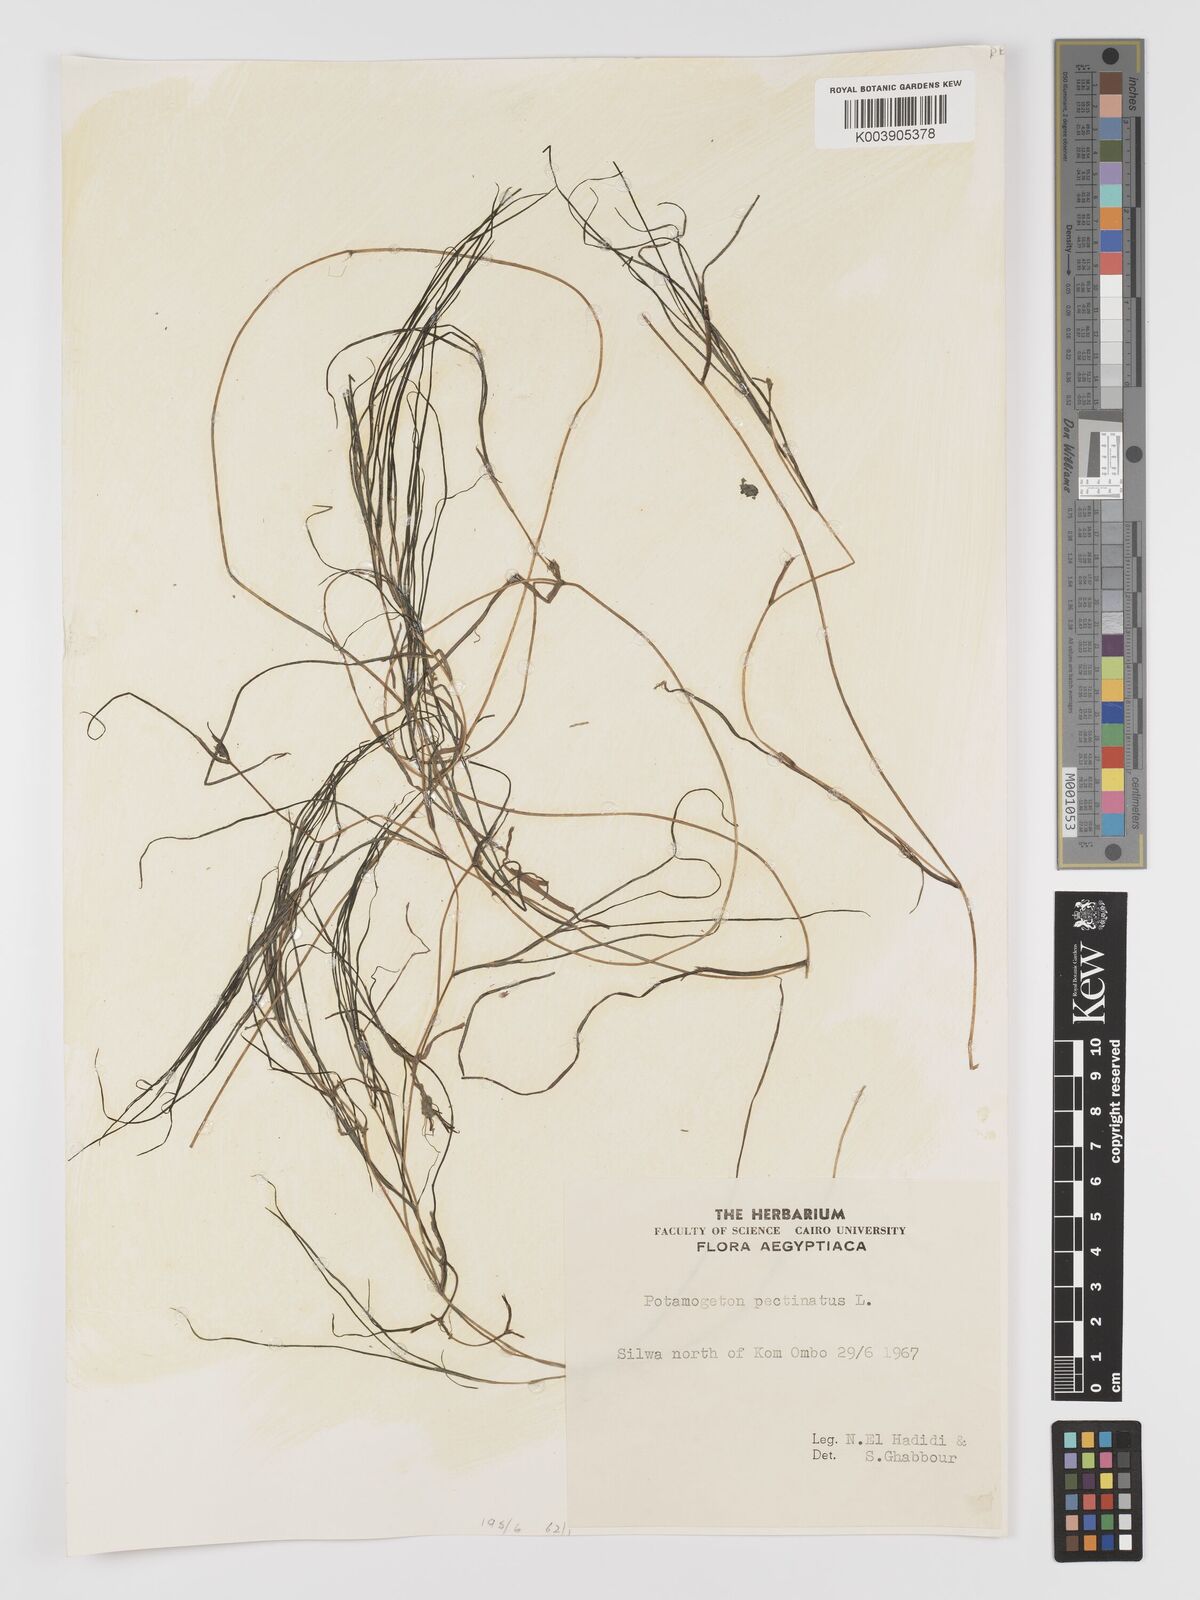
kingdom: Plantae
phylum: Tracheophyta
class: Liliopsida
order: Alismatales
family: Potamogetonaceae
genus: Stuckenia
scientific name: Stuckenia pectinata
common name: Sago pondweed
